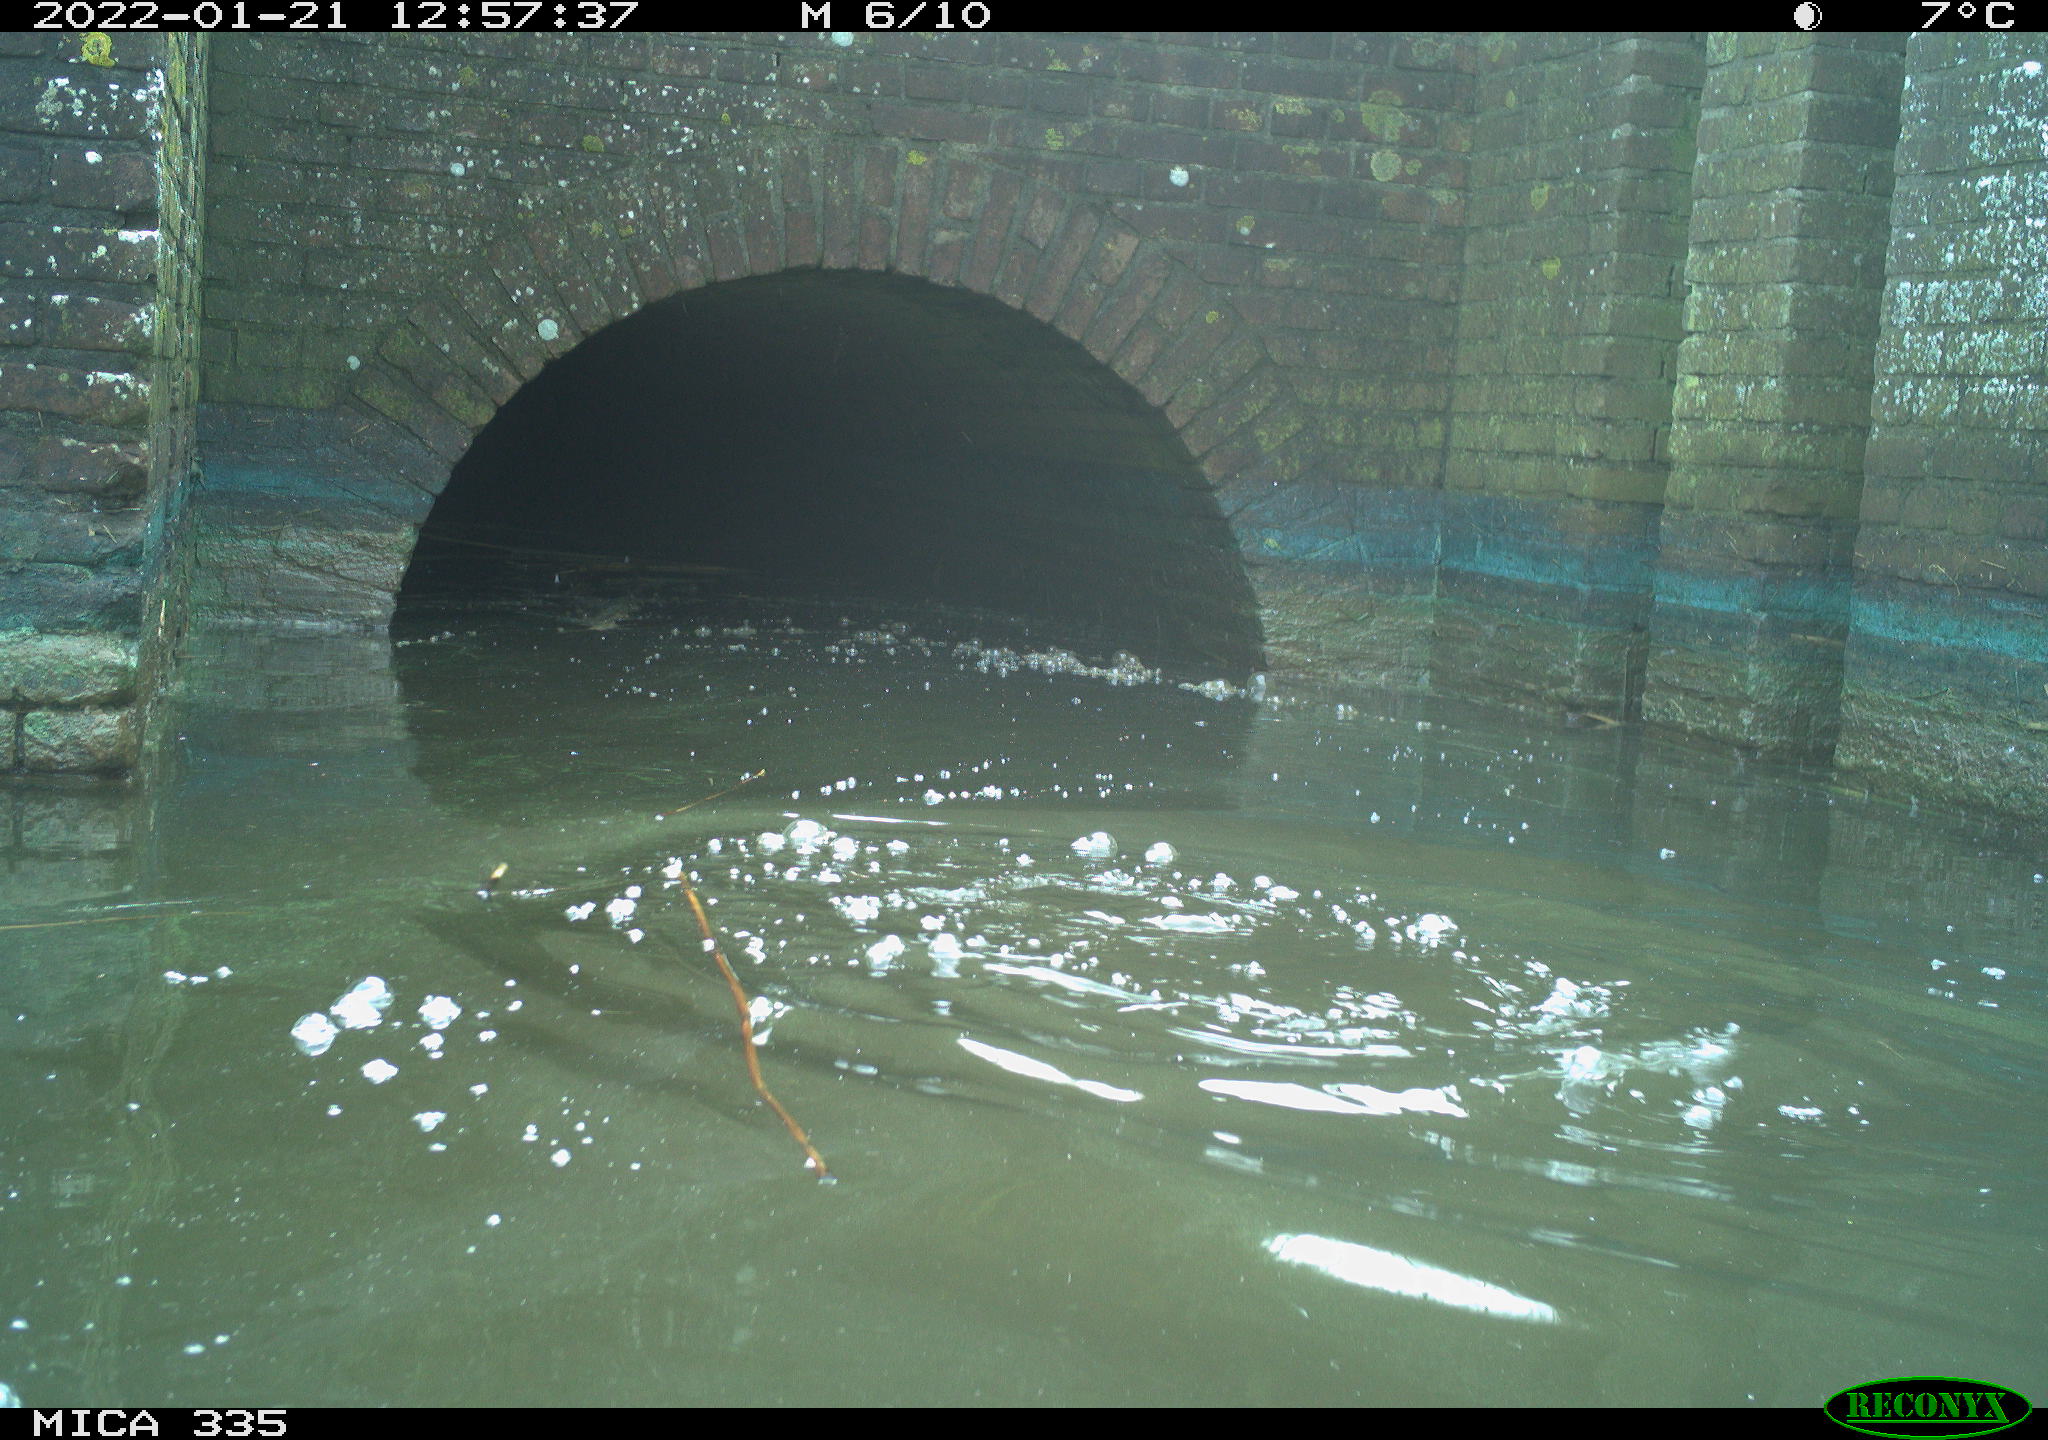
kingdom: Animalia
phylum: Chordata
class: Aves
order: Suliformes
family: Phalacrocoracidae
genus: Phalacrocorax
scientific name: Phalacrocorax carbo
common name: Great cormorant
